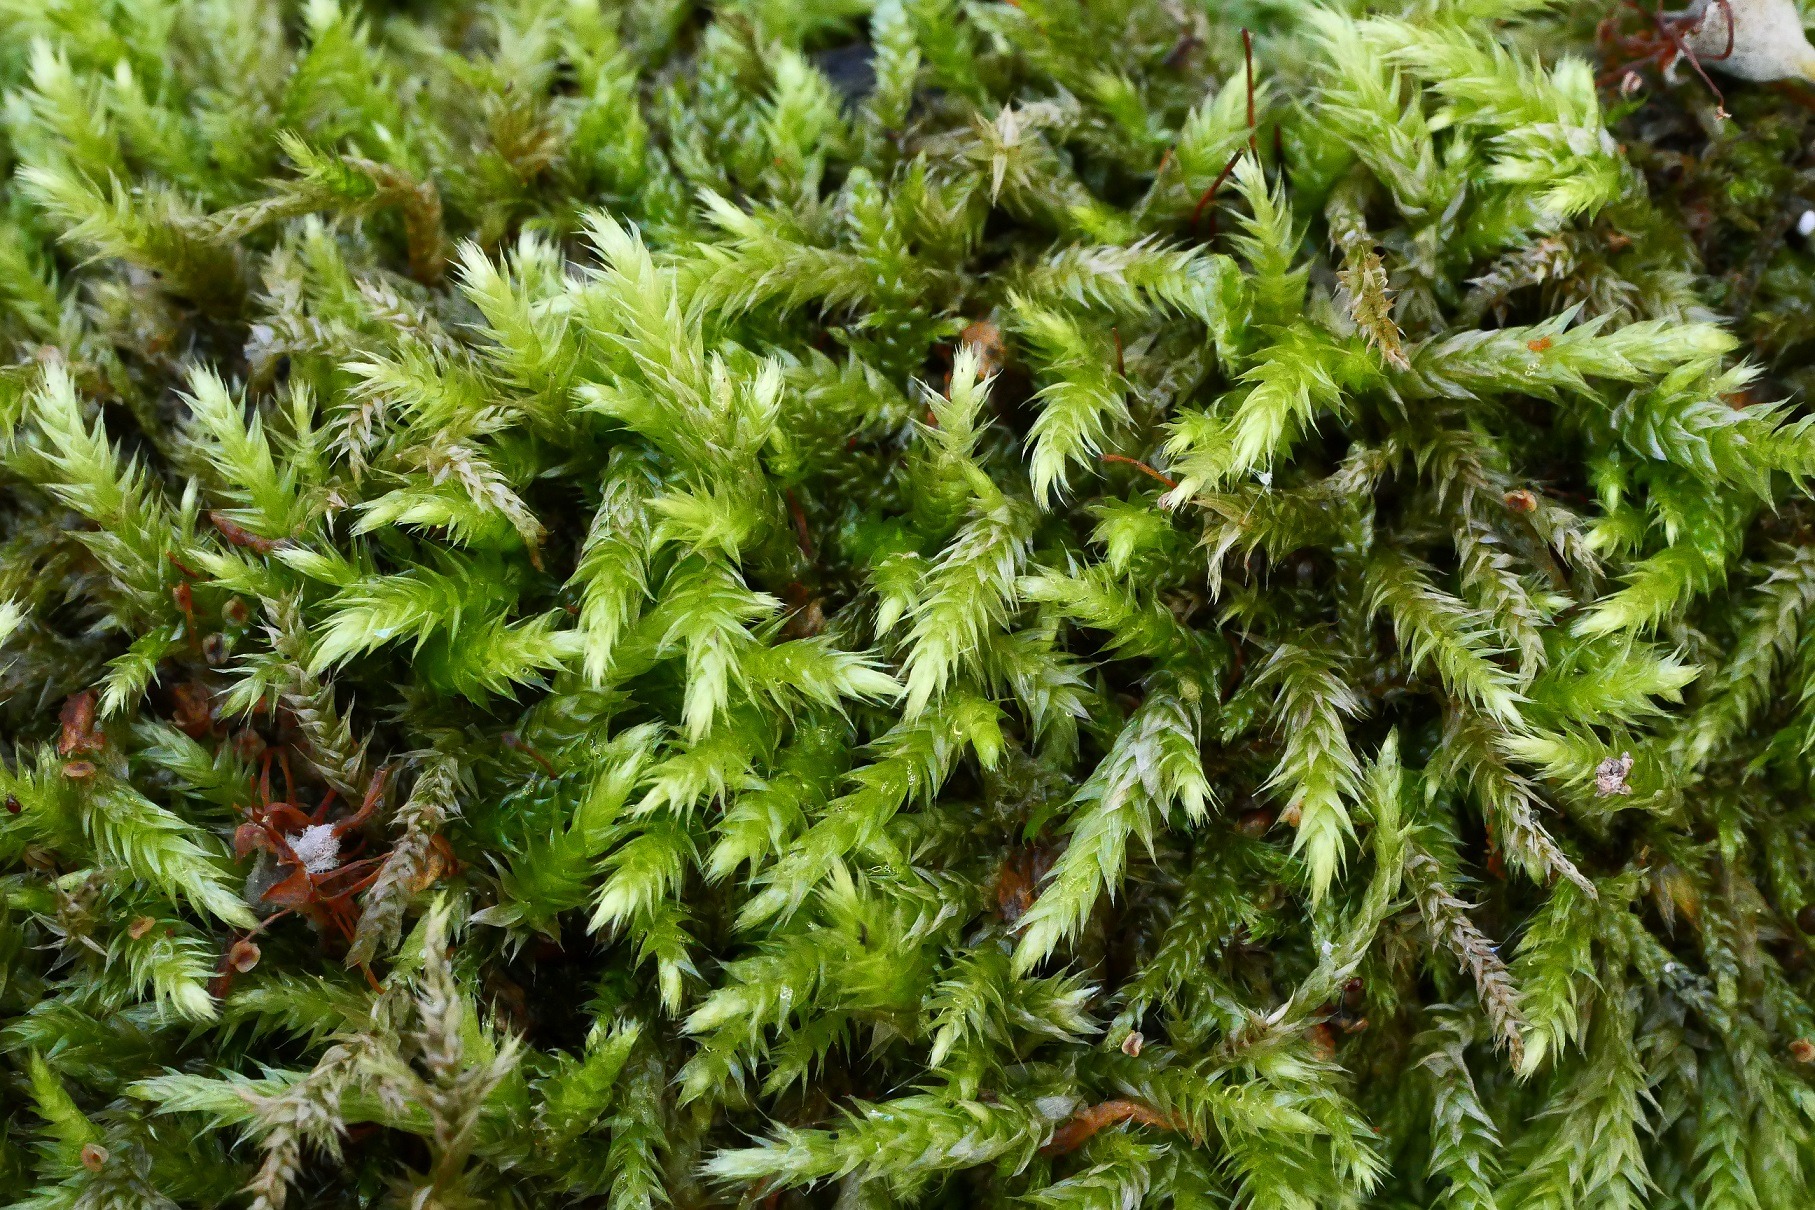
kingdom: Plantae
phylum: Bryophyta
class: Bryopsida
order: Hypnales
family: Brachytheciaceae
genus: Brachythecium
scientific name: Brachythecium salebrosum
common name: Skov-kortkapsel
